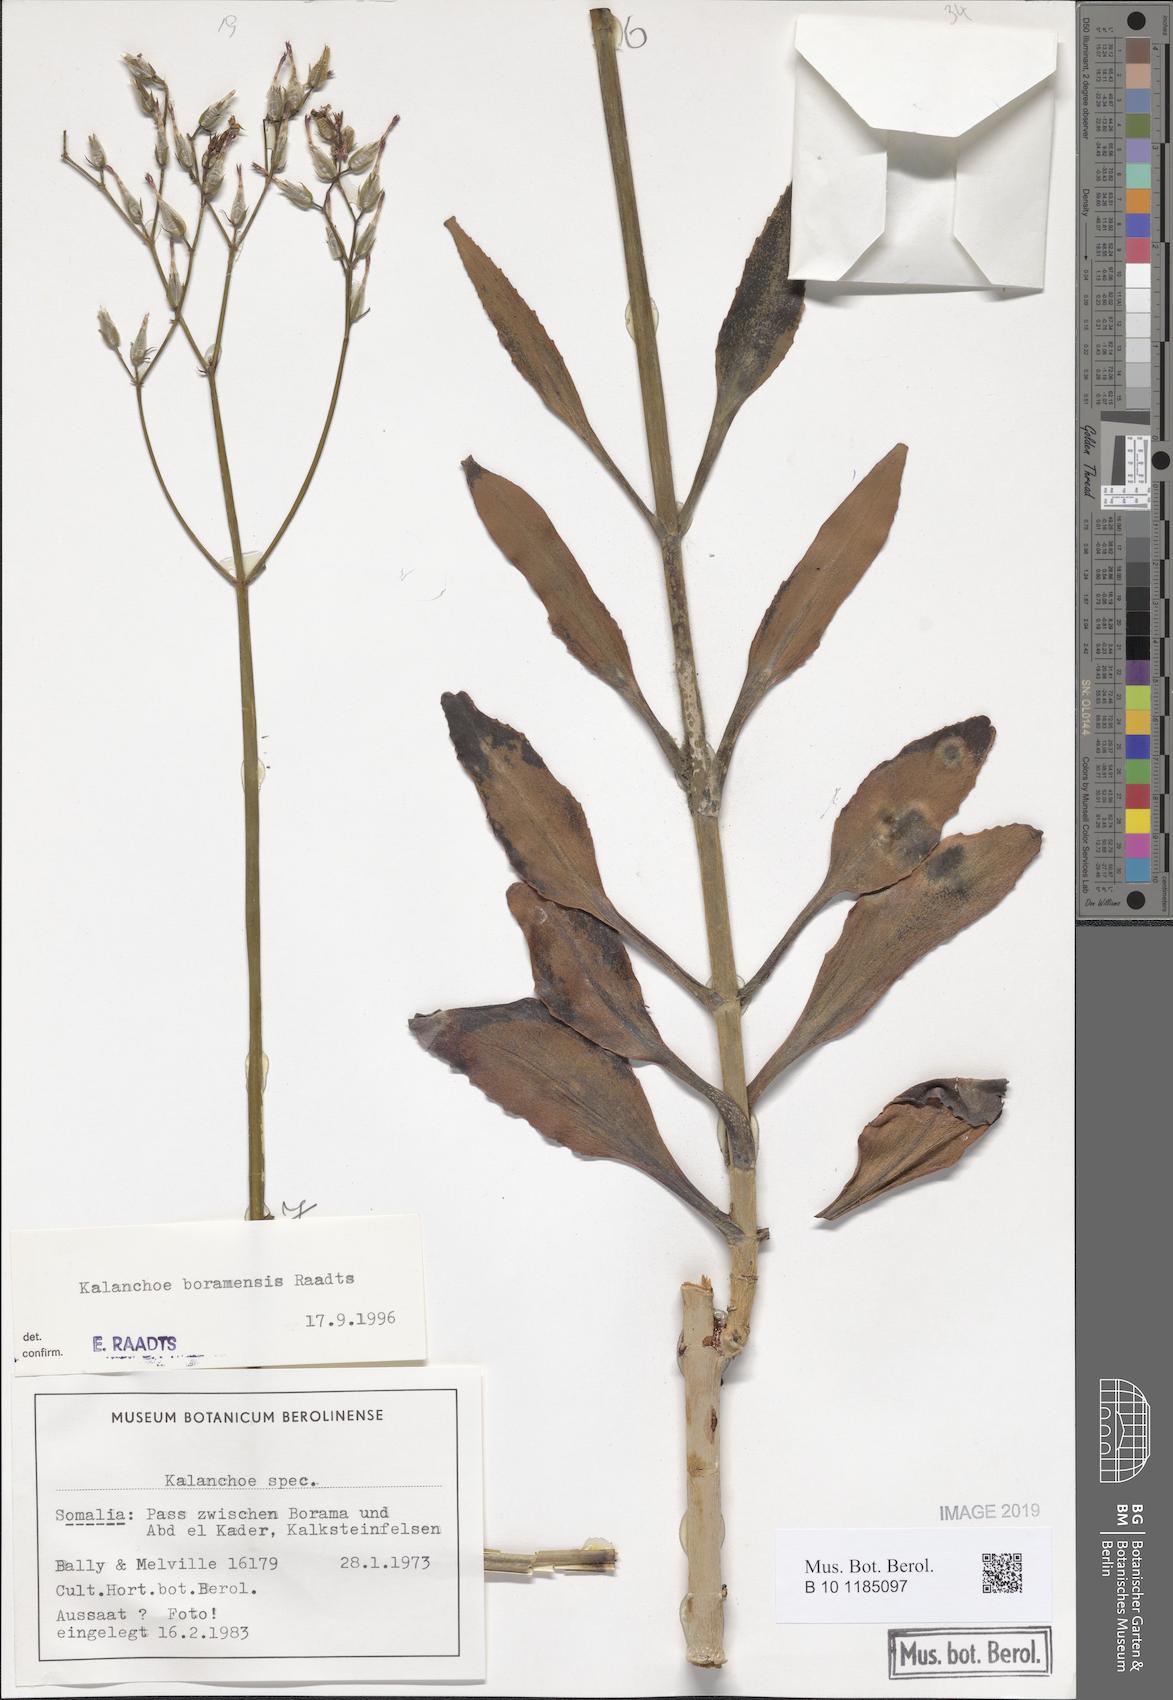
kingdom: Plantae
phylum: Tracheophyta
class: Magnoliopsida
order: Saxifragales
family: Crassulaceae
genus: Kalanchoe
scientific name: Kalanchoe
